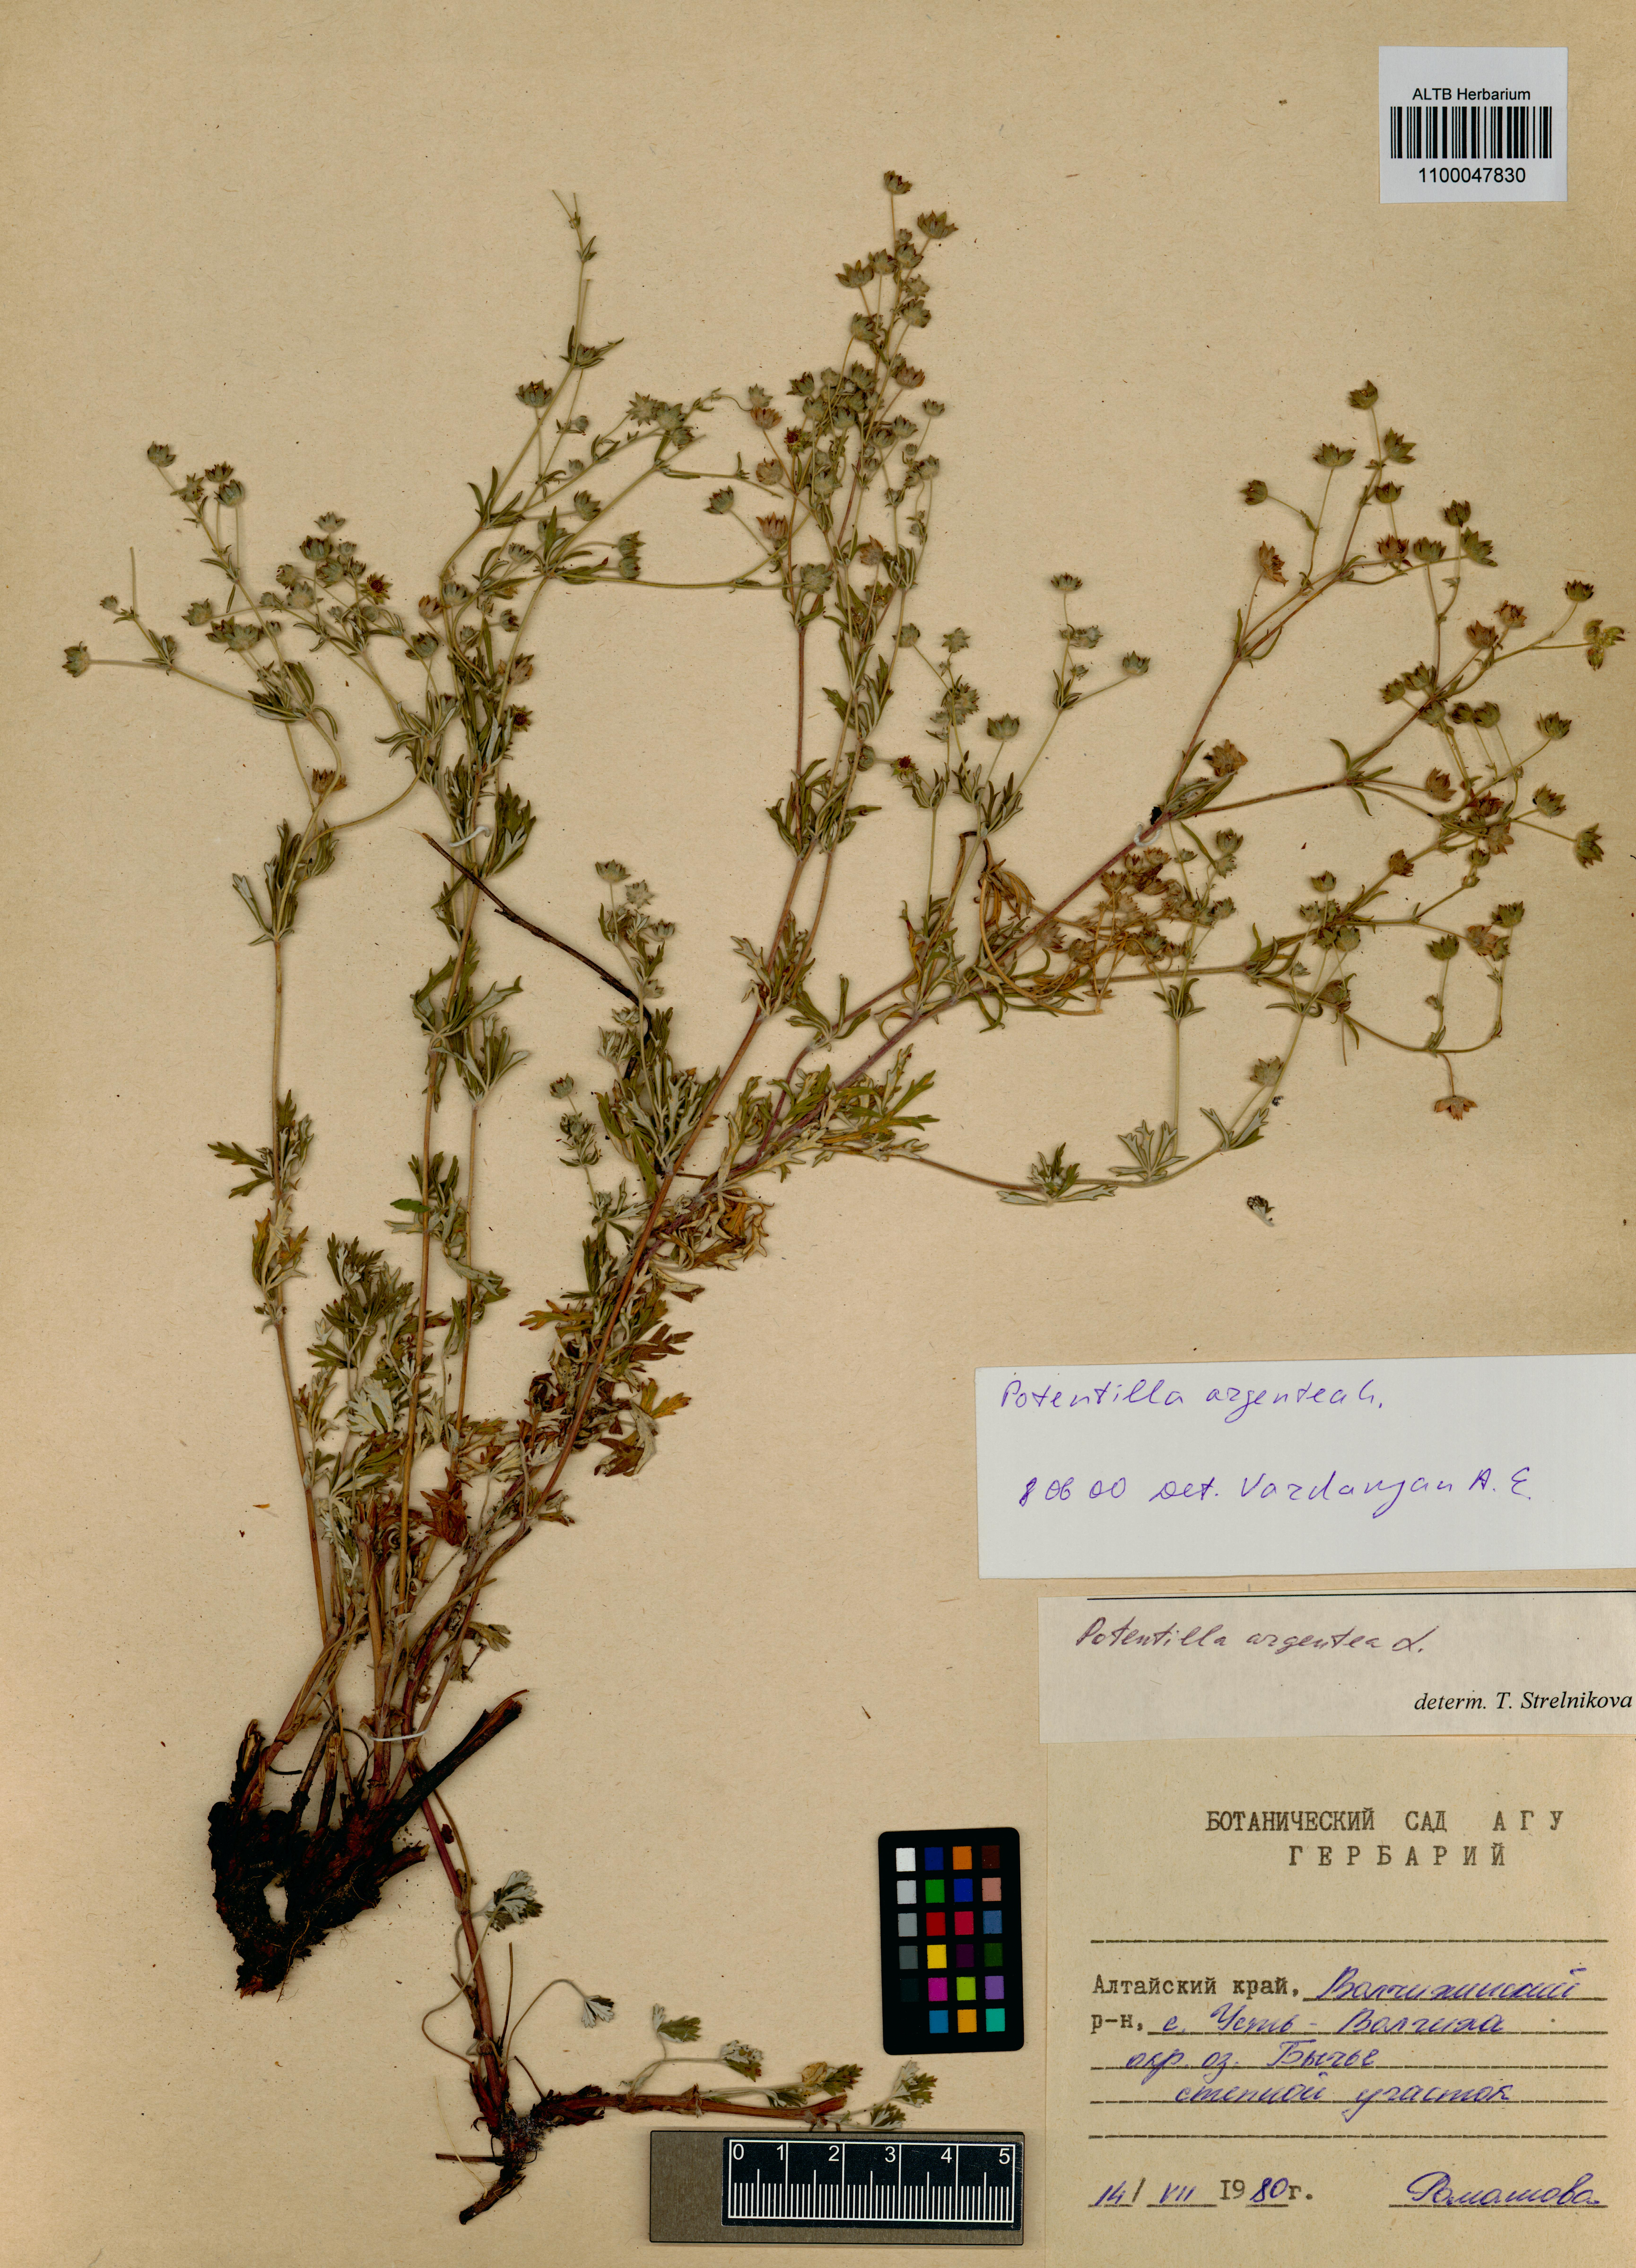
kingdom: Plantae
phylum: Tracheophyta
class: Magnoliopsida
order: Rosales
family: Rosaceae
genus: Potentilla
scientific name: Potentilla argentea
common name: Hoary cinquefoil
